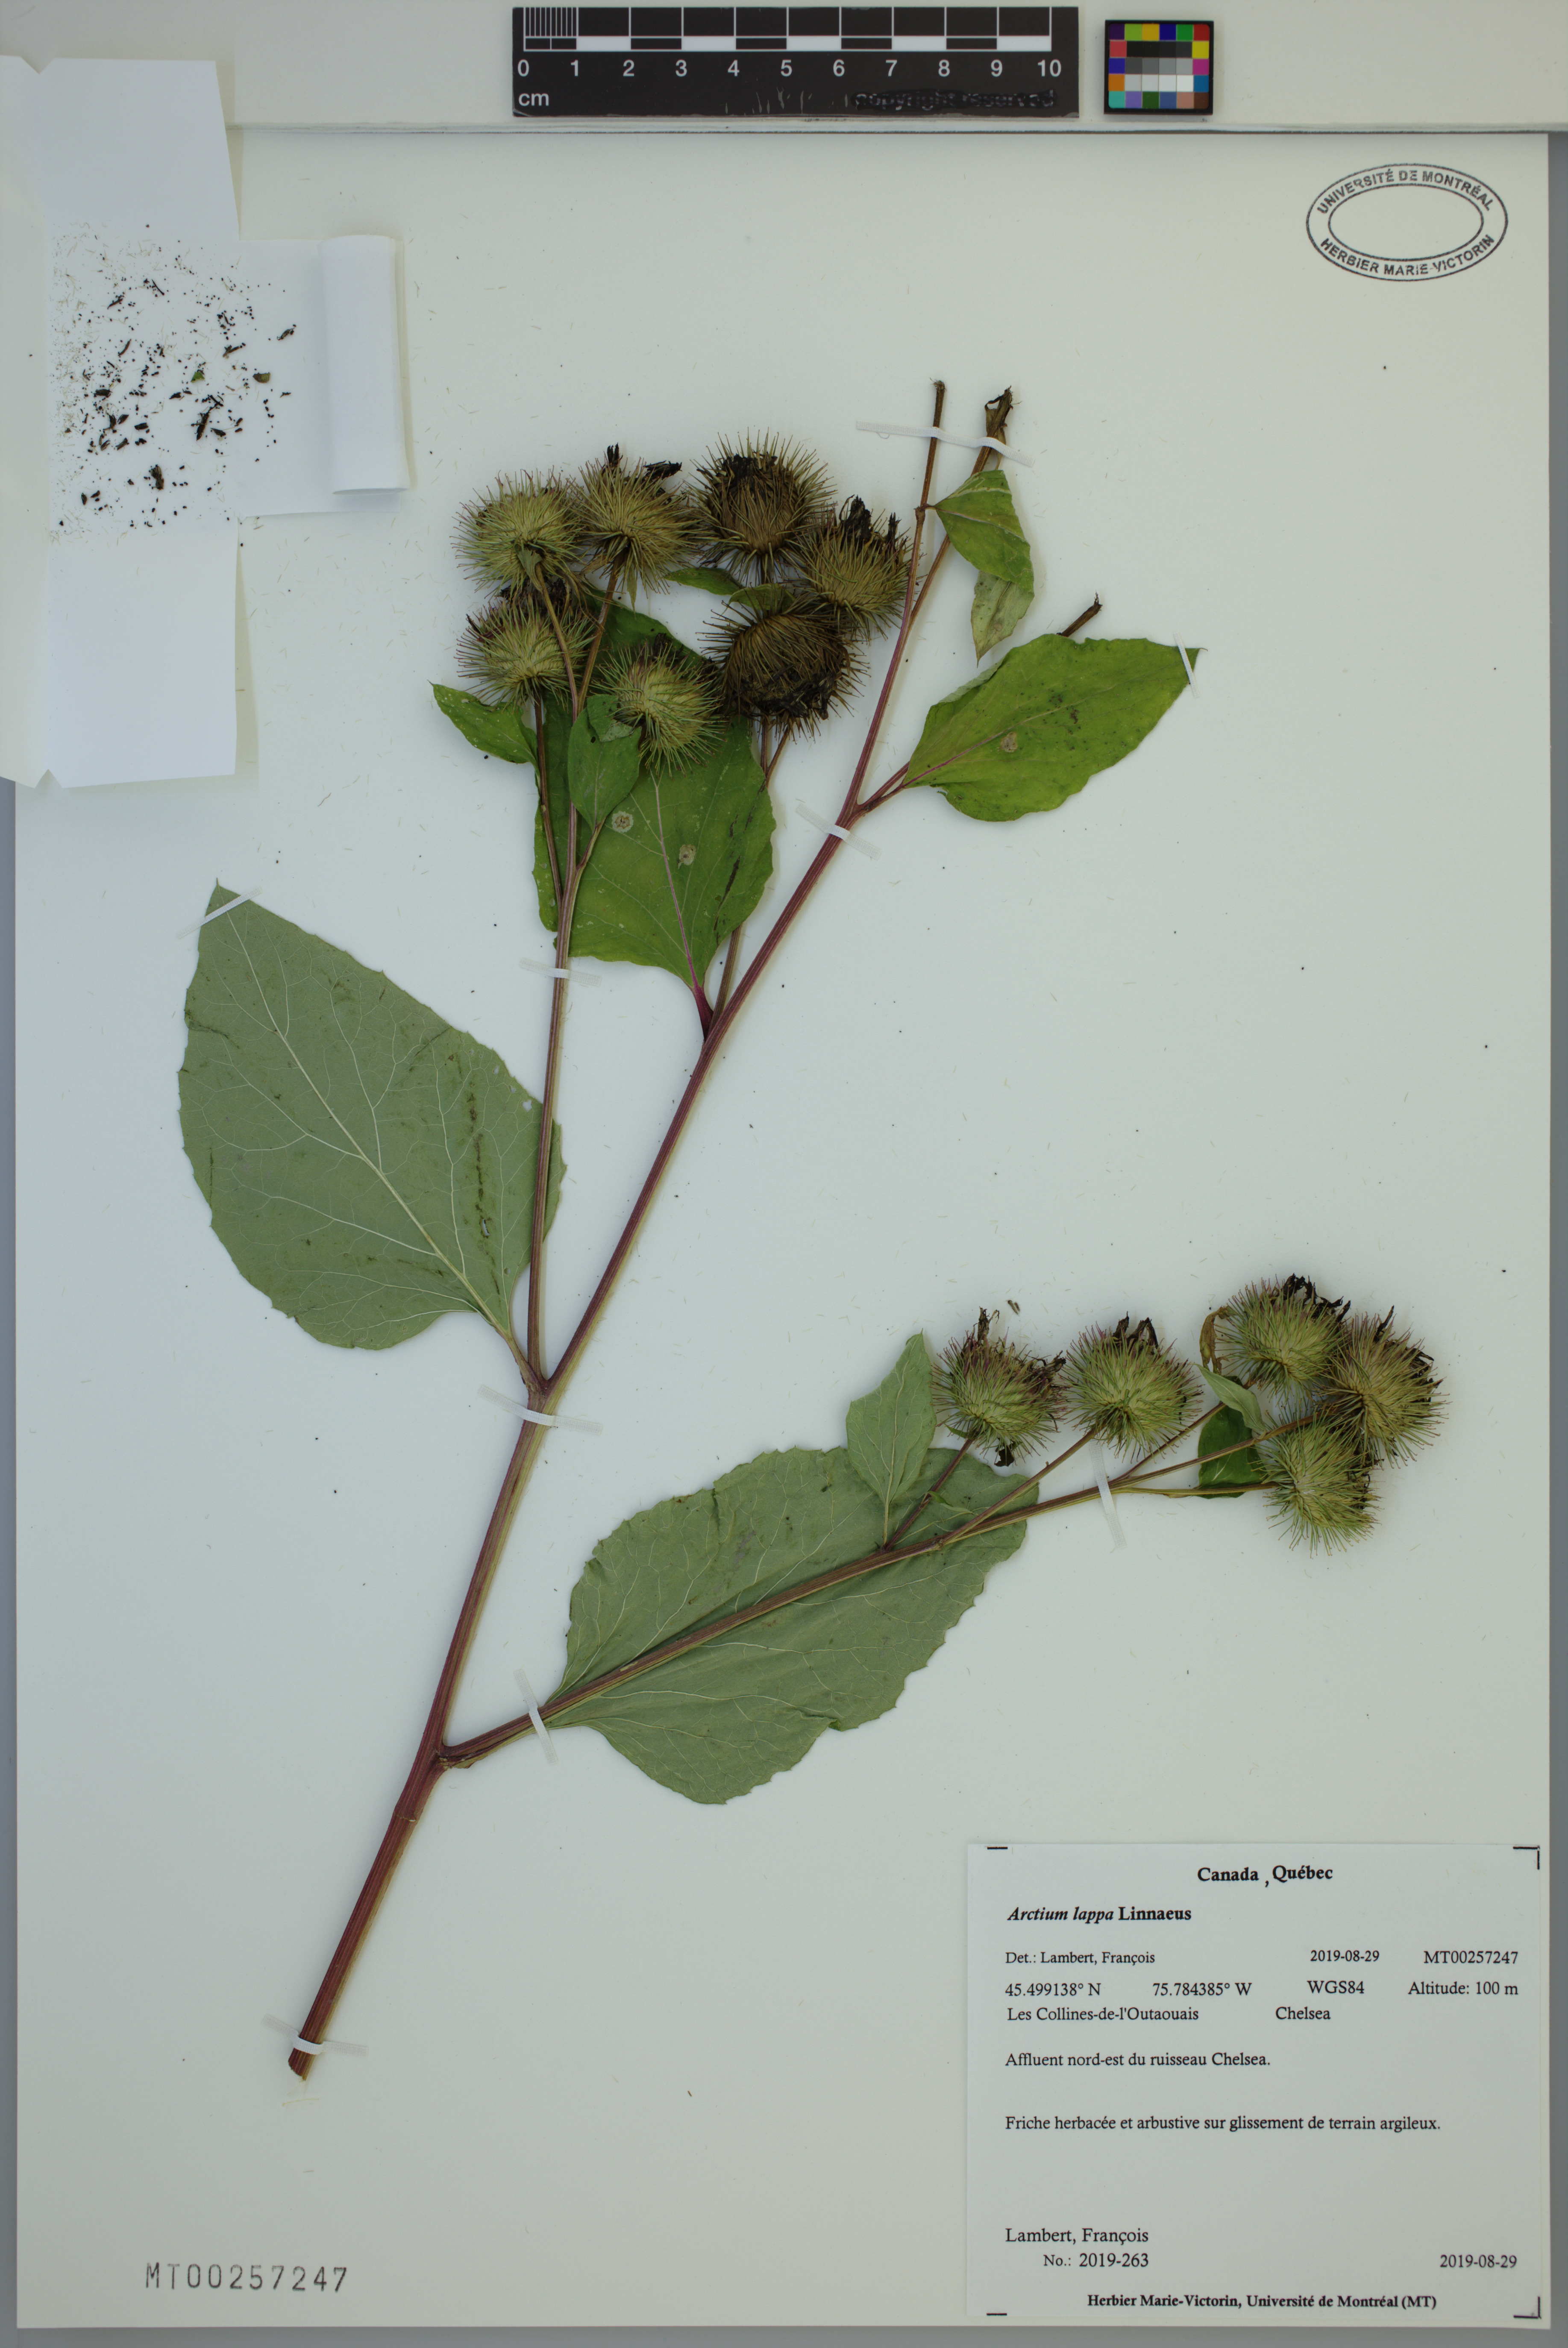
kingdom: Plantae
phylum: Tracheophyta
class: Magnoliopsida
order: Asterales
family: Asteraceae
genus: Arctium
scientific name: Arctium lappa
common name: Greater burdock
